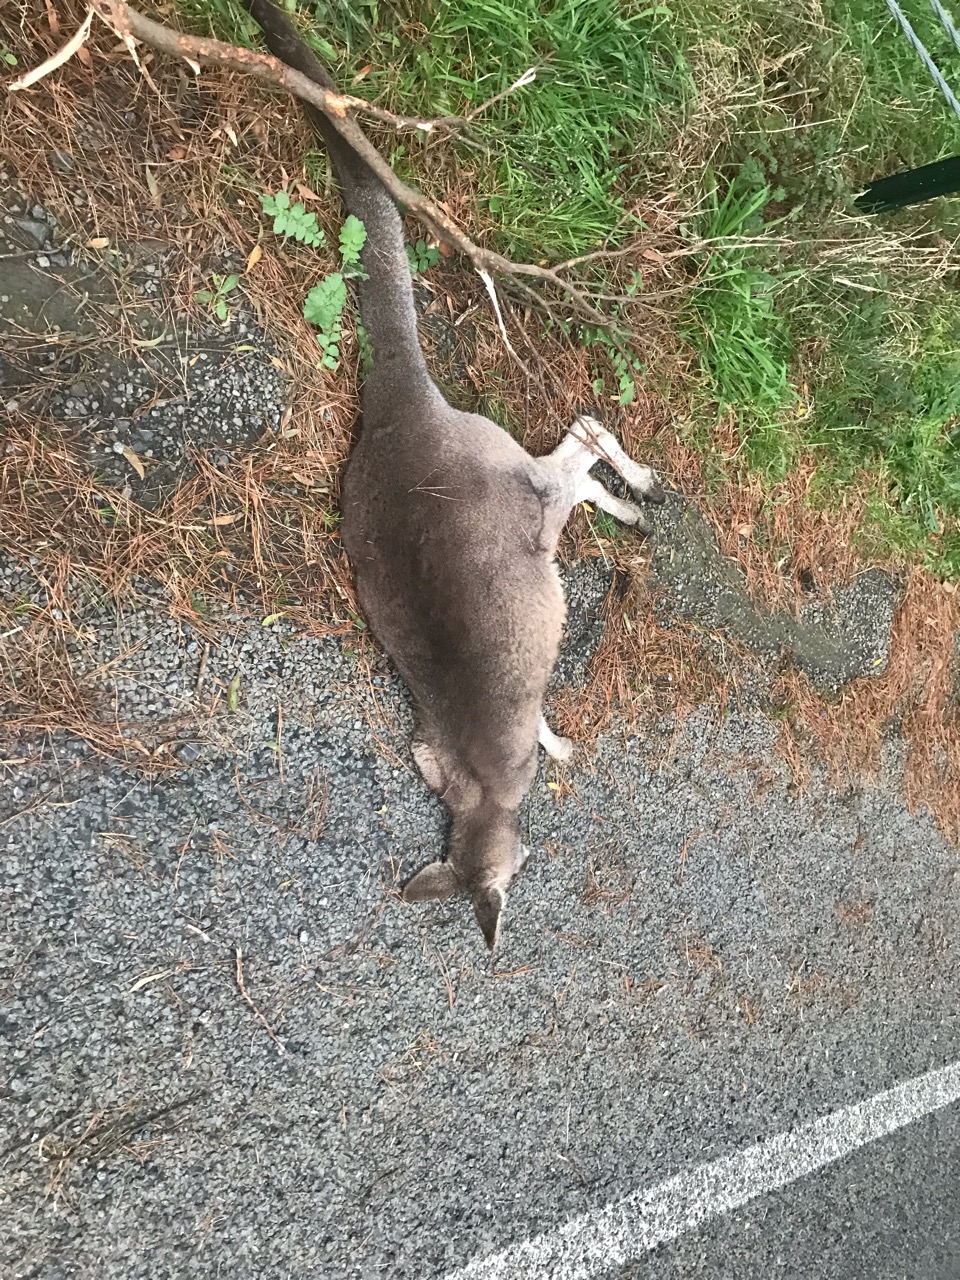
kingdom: Animalia
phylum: Chordata
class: Mammalia
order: Diprotodontia
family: Macropodidae
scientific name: Macropodidae
